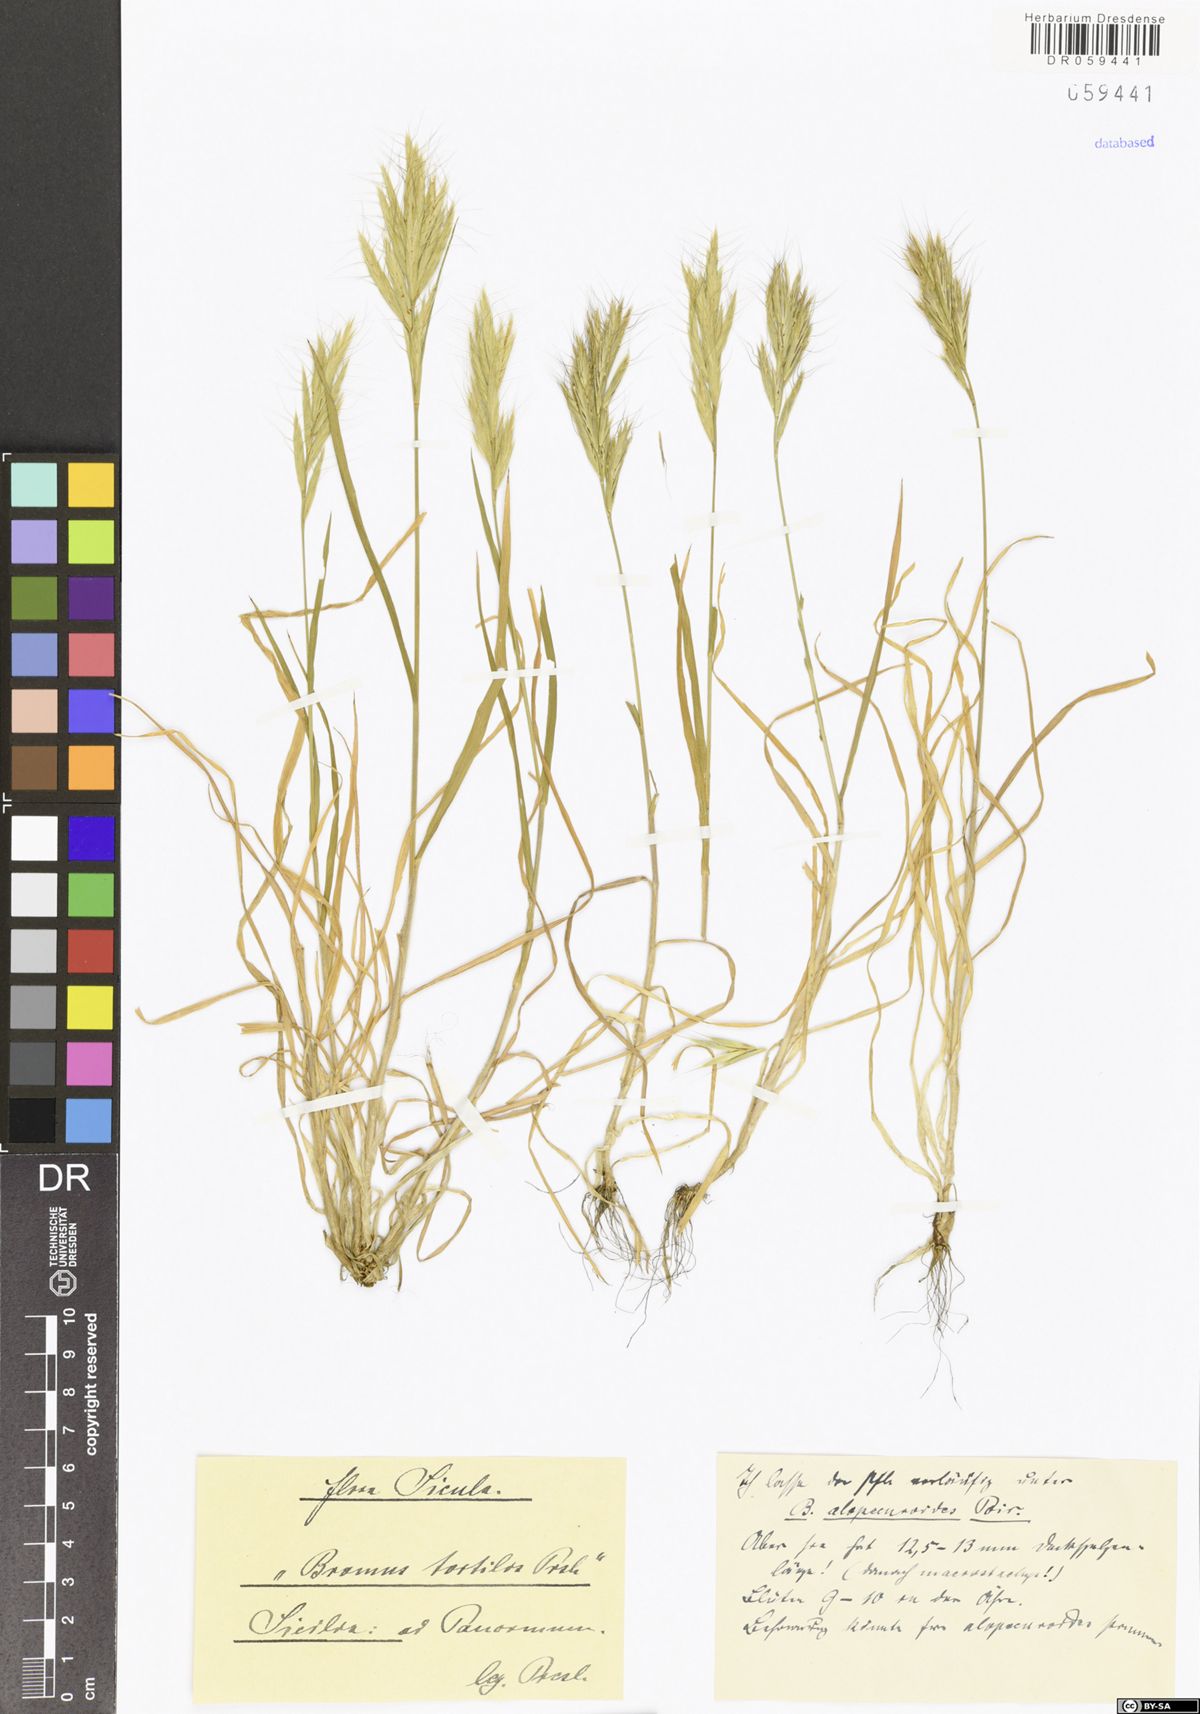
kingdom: Plantae
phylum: Tracheophyta
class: Liliopsida
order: Poales
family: Poaceae
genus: Bromus
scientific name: Bromus tortilis
